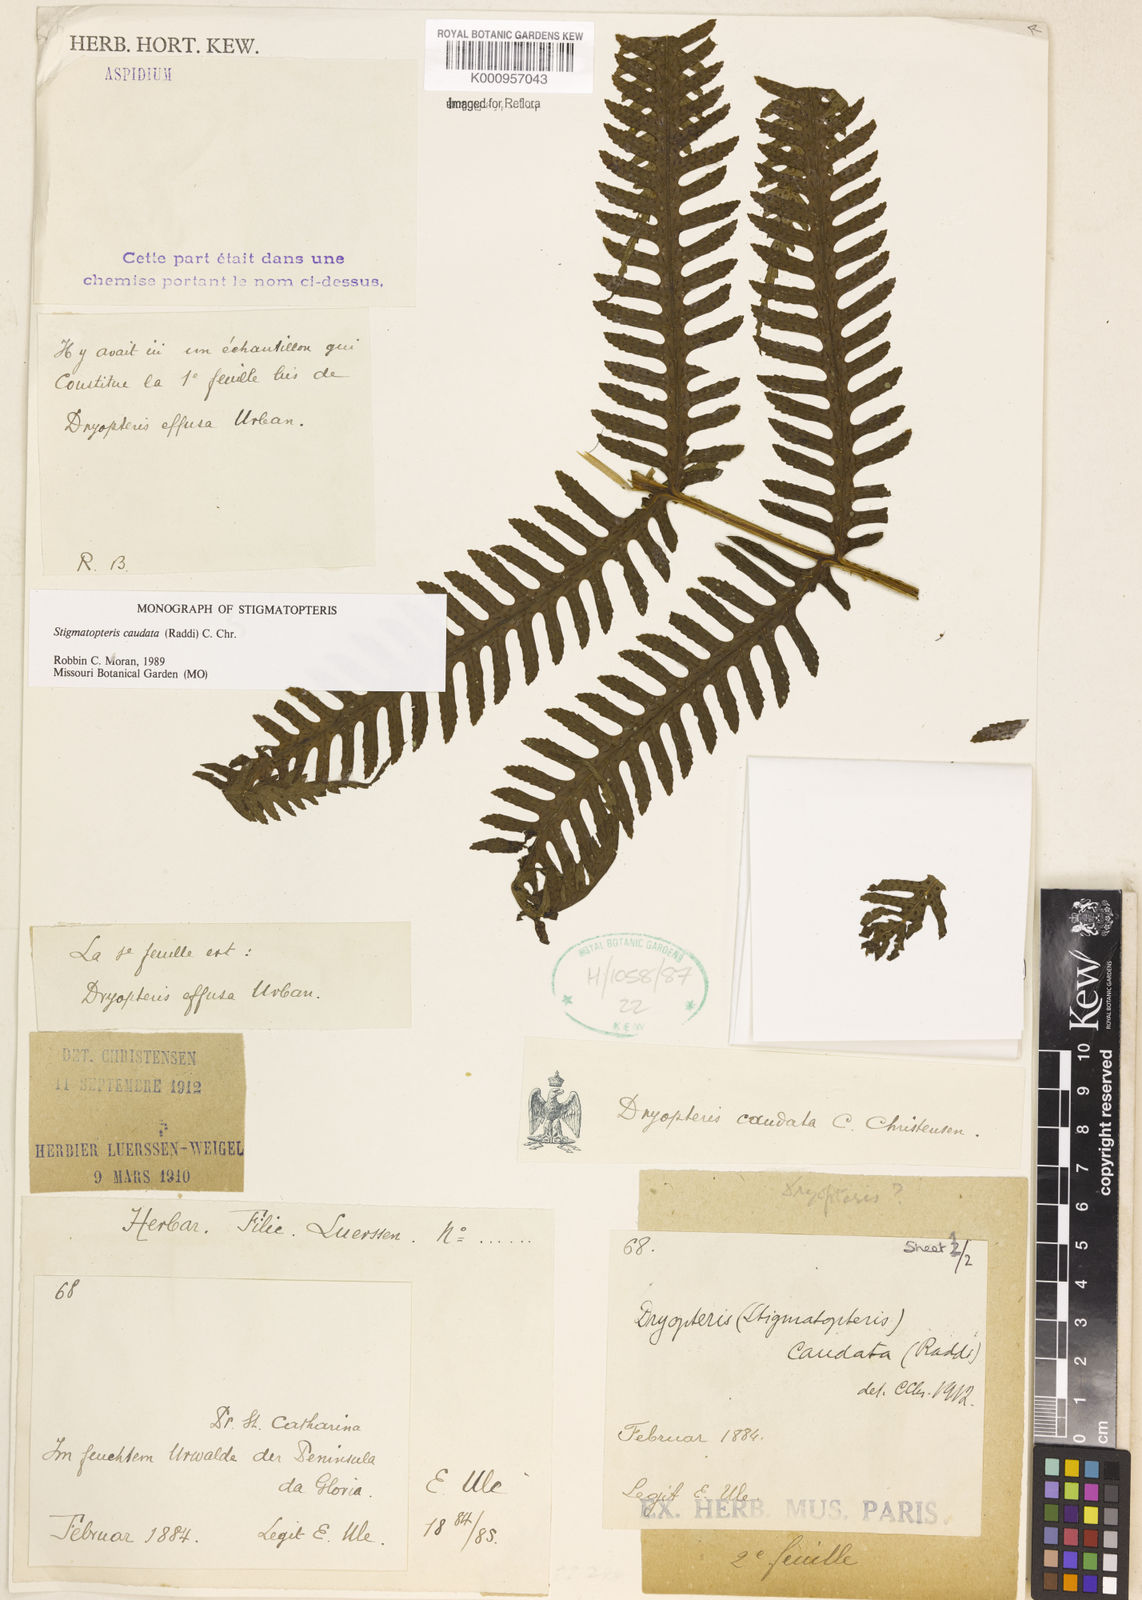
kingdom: Plantae
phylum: Tracheophyta
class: Polypodiopsida
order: Polypodiales
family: Dryopteridaceae
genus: Stigmatopteris
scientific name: Stigmatopteris caudata
